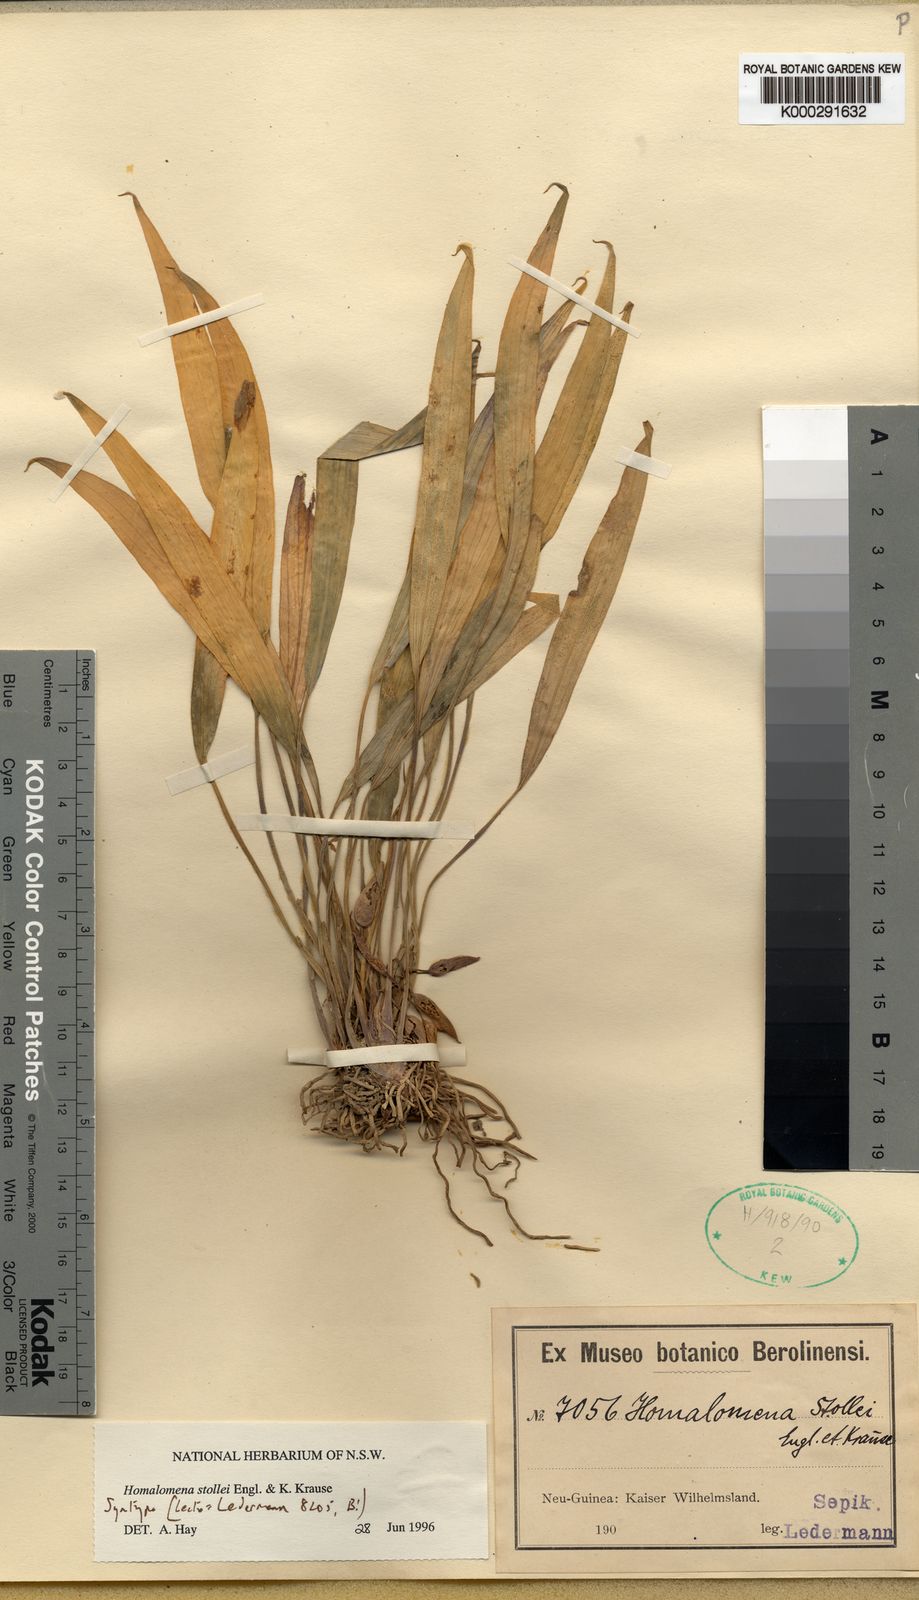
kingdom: Plantae
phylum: Tracheophyta
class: Liliopsida
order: Alismatales
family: Araceae
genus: Homalomena
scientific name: Homalomena stollei
